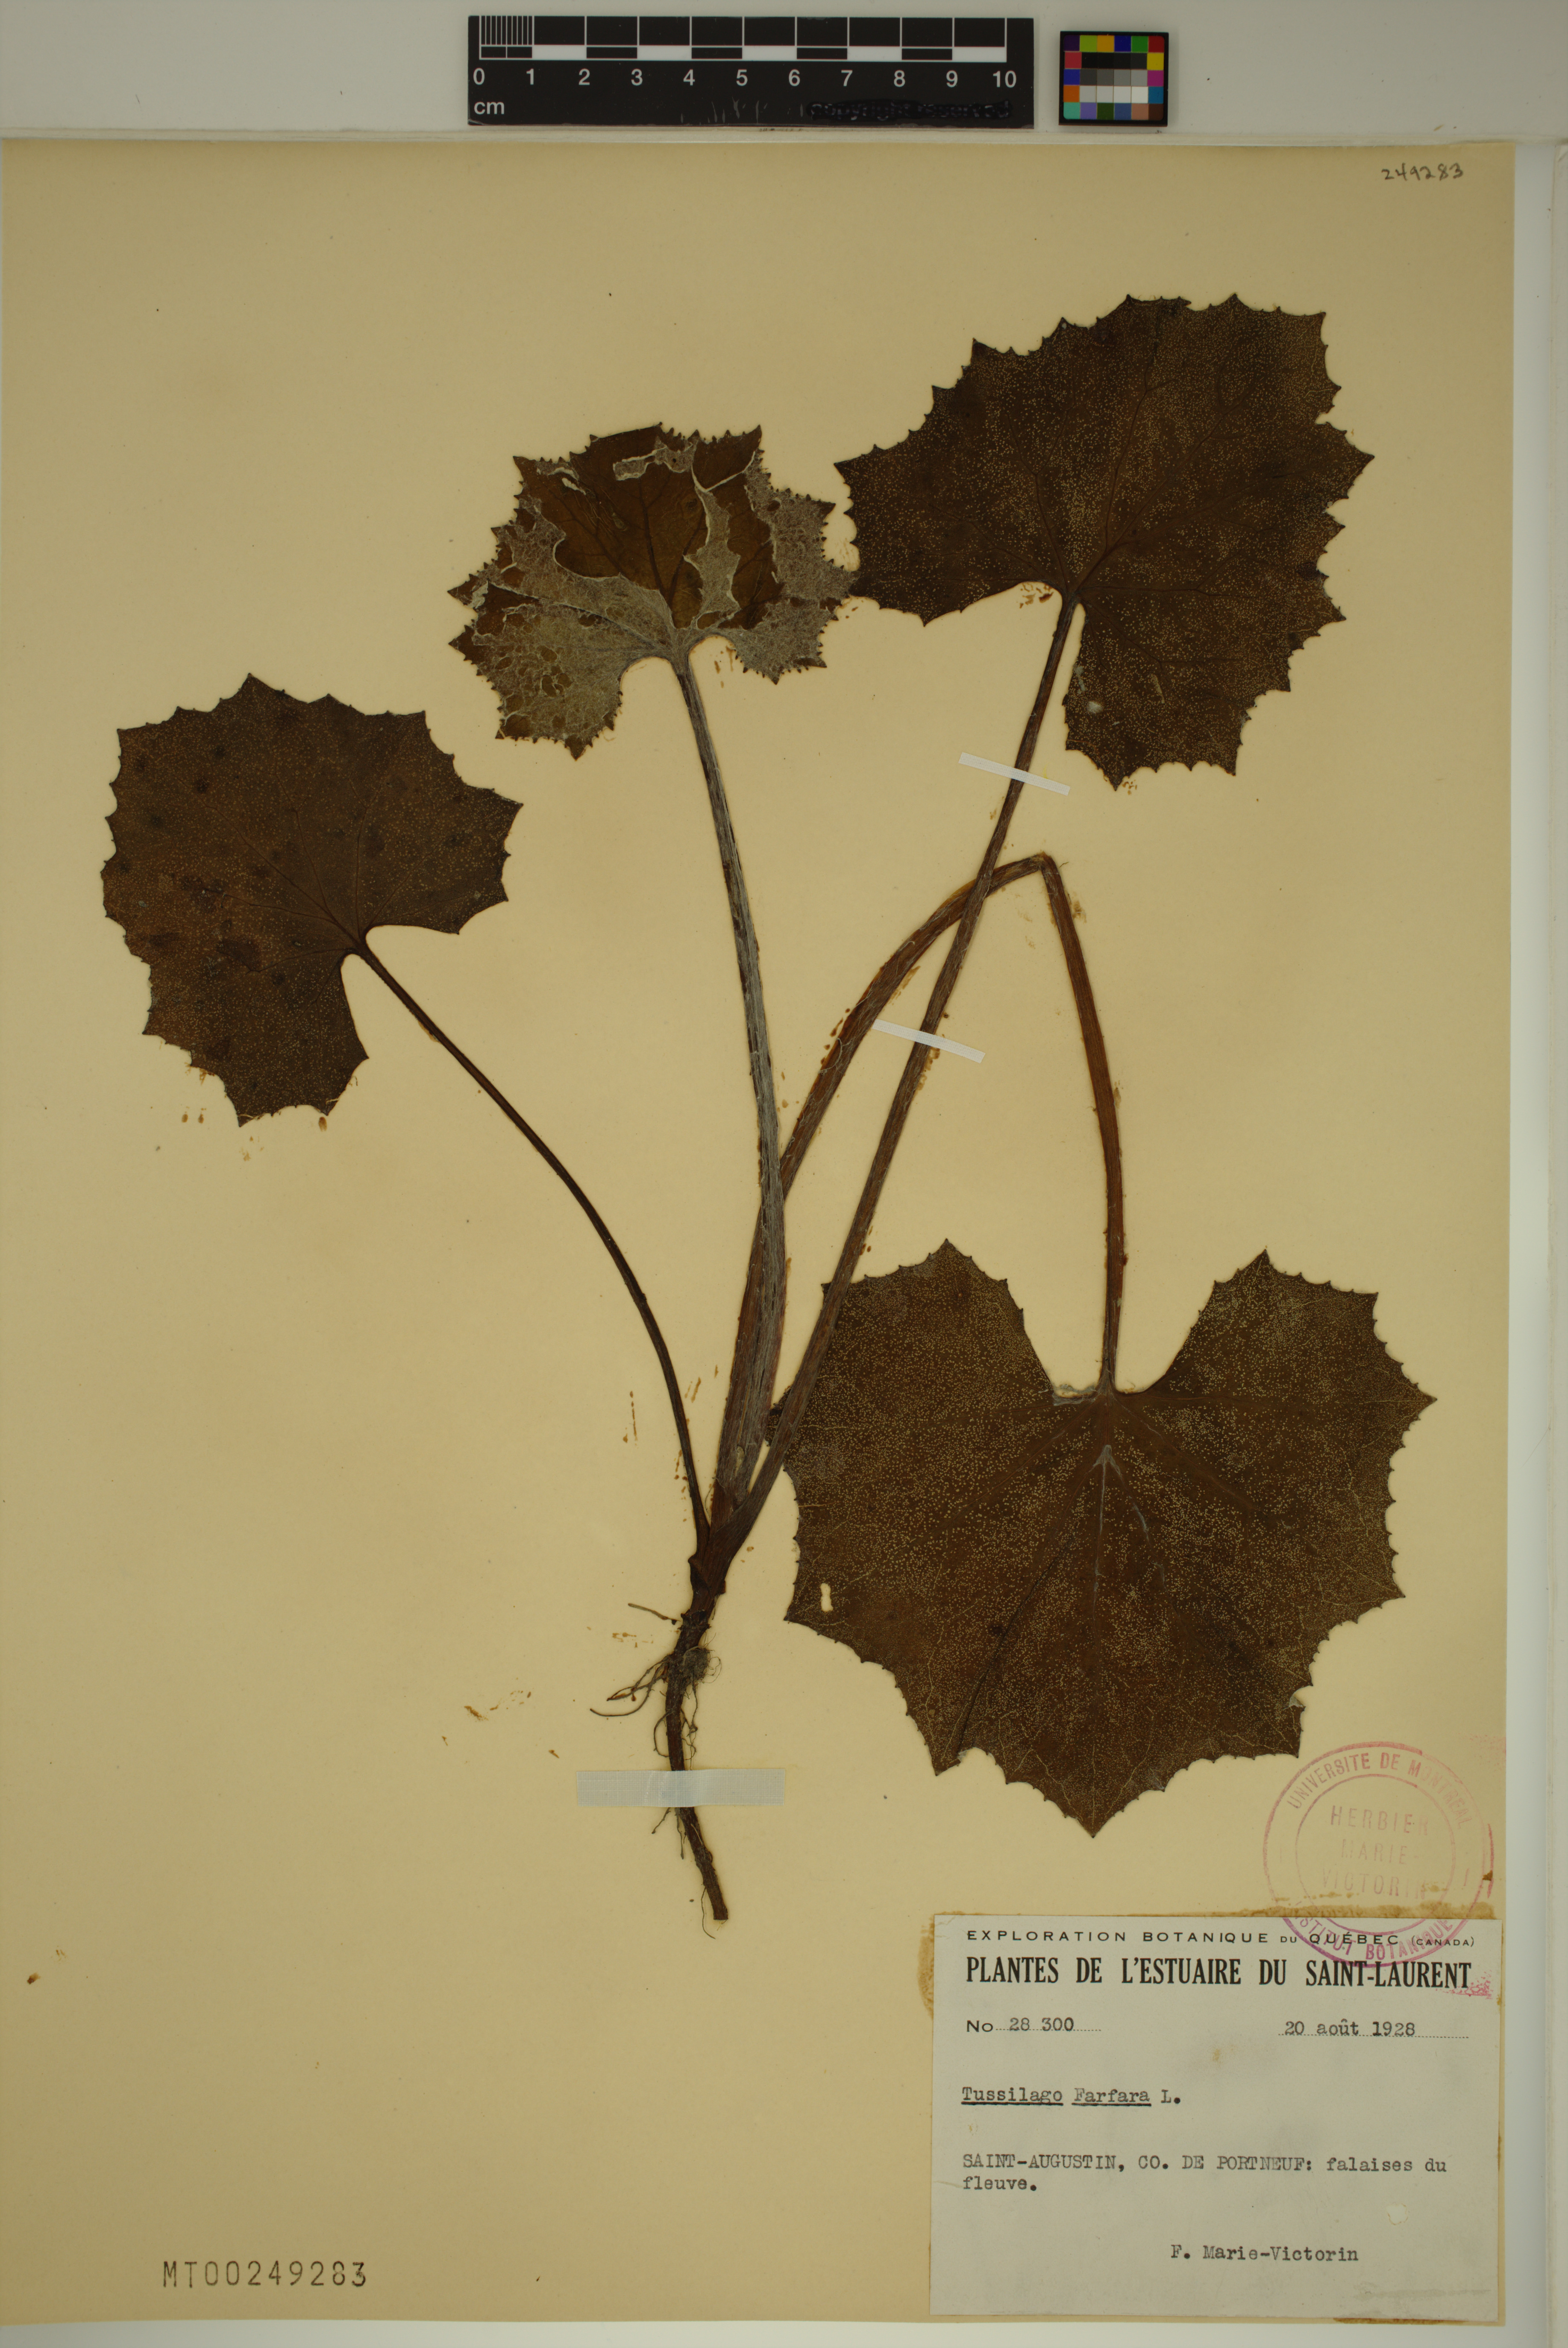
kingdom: Plantae
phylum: Tracheophyta
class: Magnoliopsida
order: Asterales
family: Asteraceae
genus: Tussilago
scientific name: Tussilago farfara
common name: Coltsfoot
